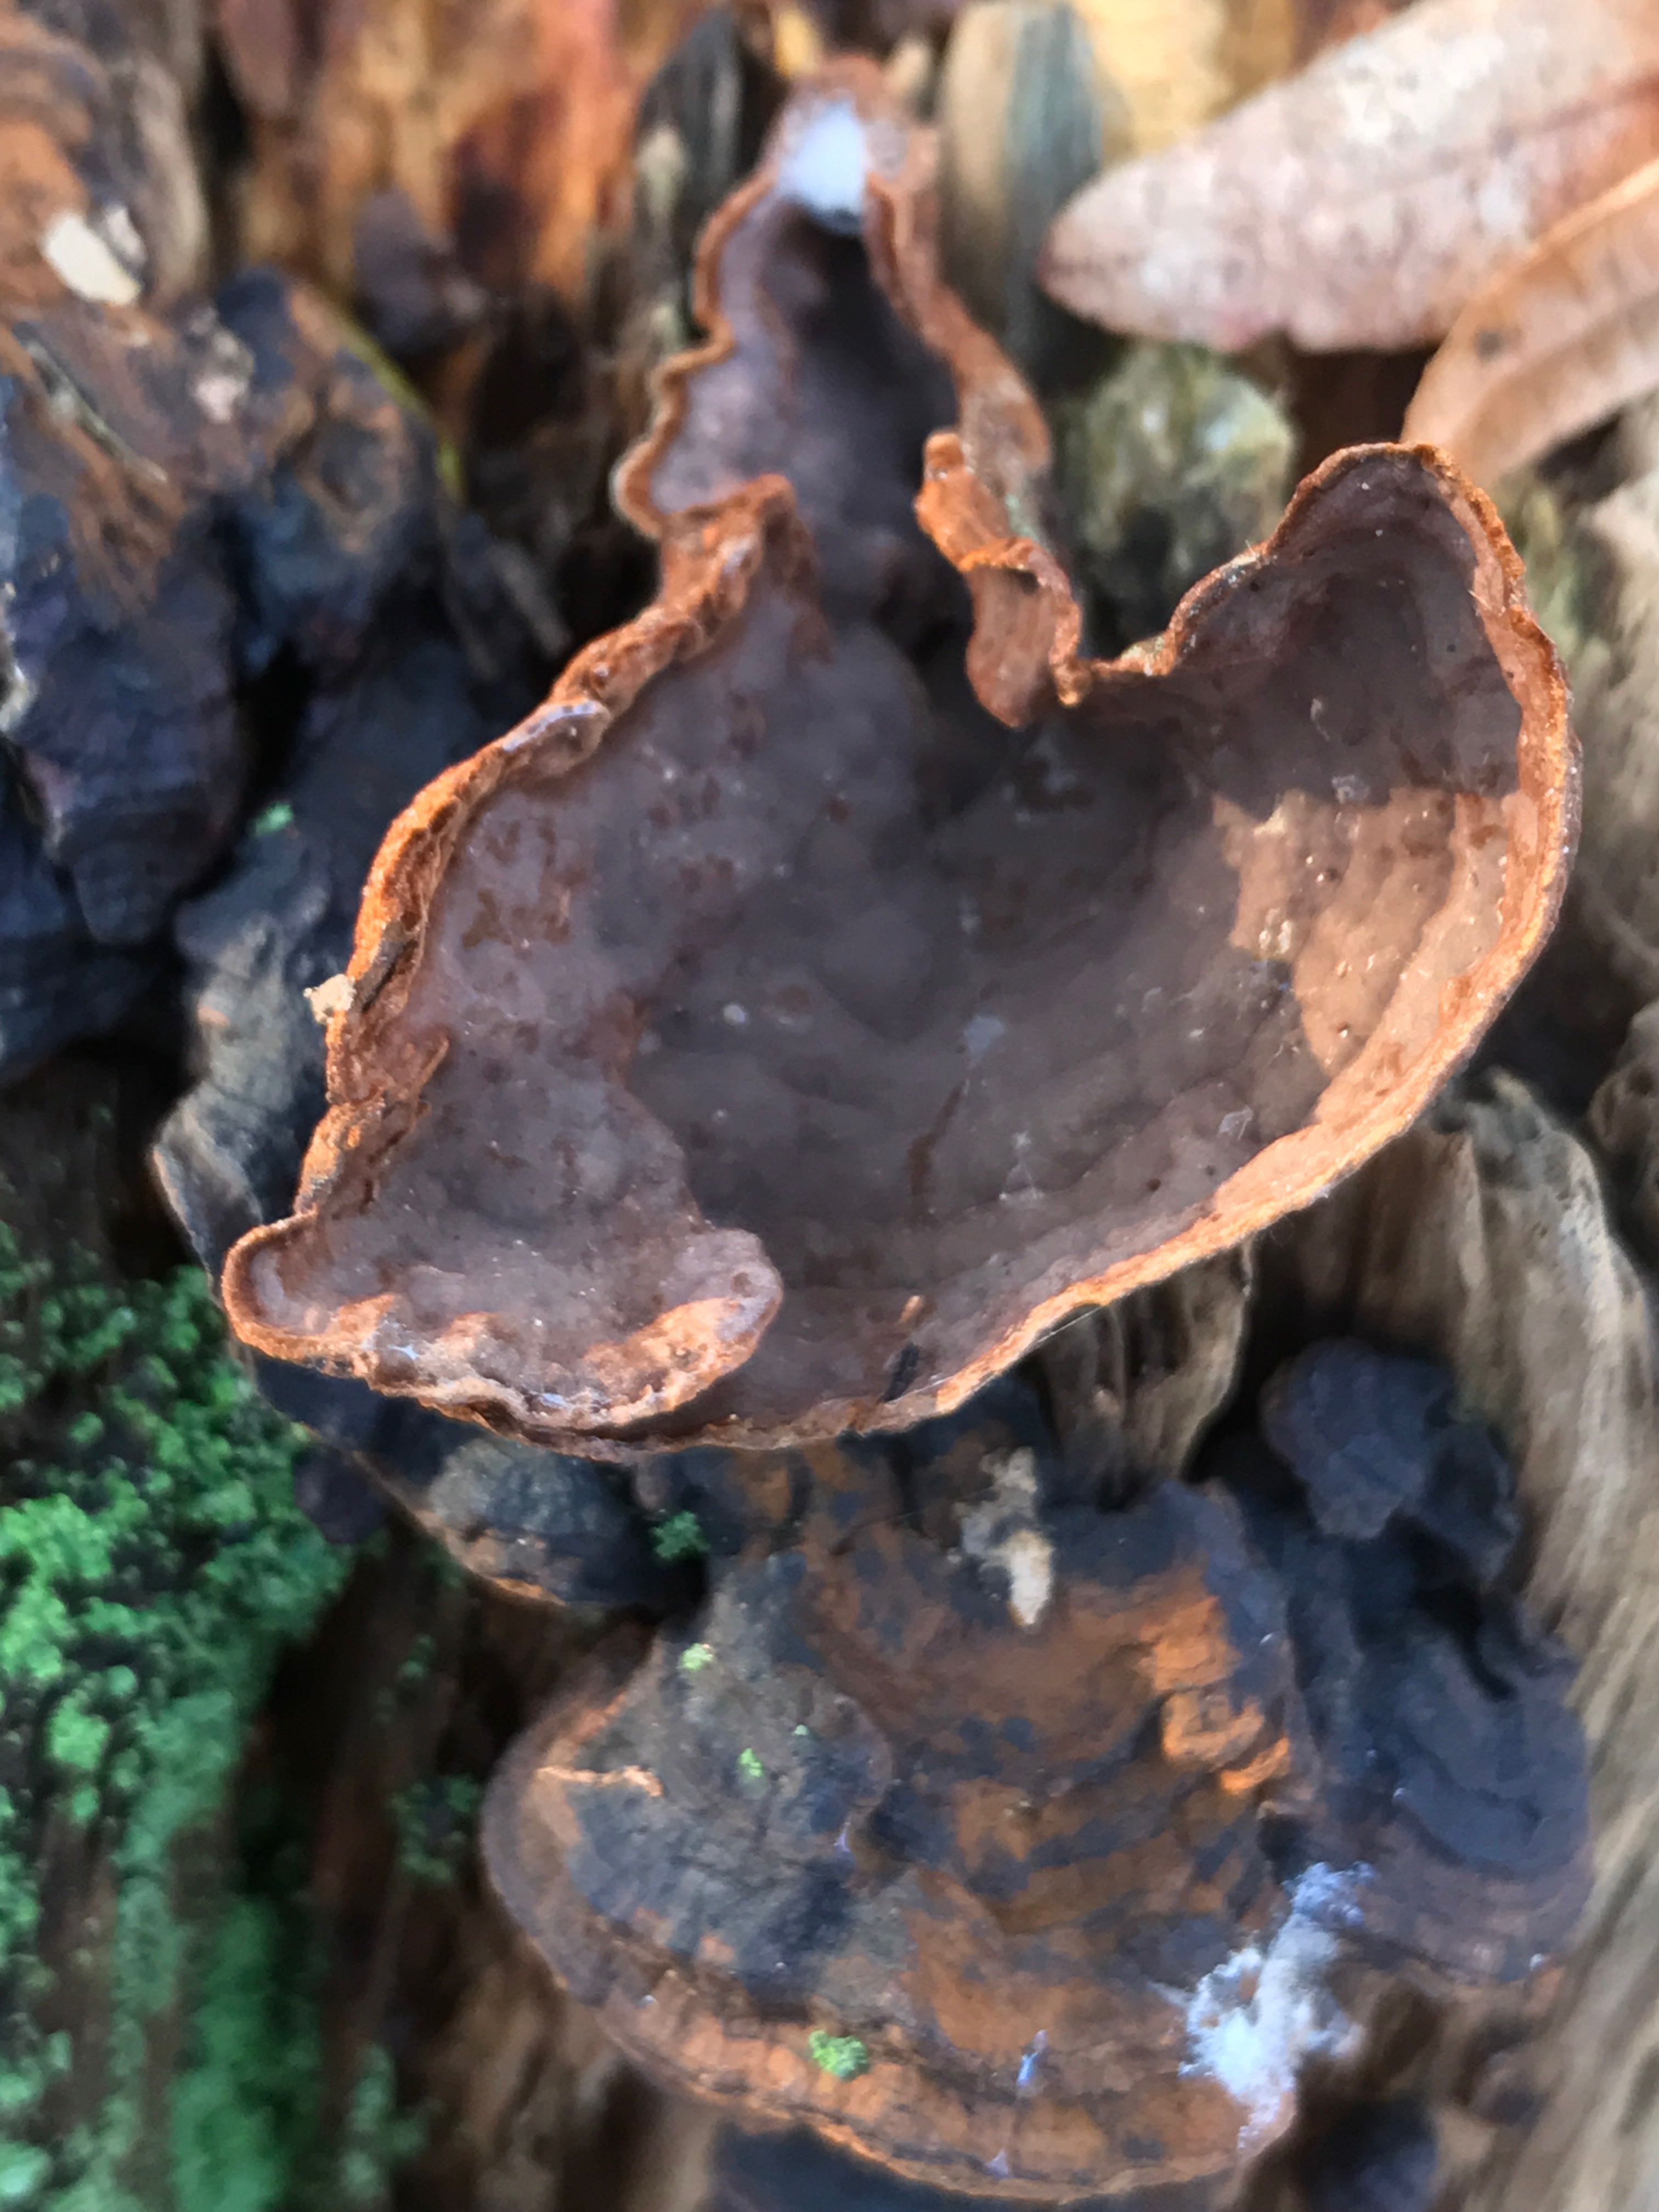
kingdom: Fungi
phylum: Basidiomycota
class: Agaricomycetes
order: Hymenochaetales
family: Hymenochaetaceae
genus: Hymenochaete
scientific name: Hymenochaete rubiginosa
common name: stiv ruslædersvamp
